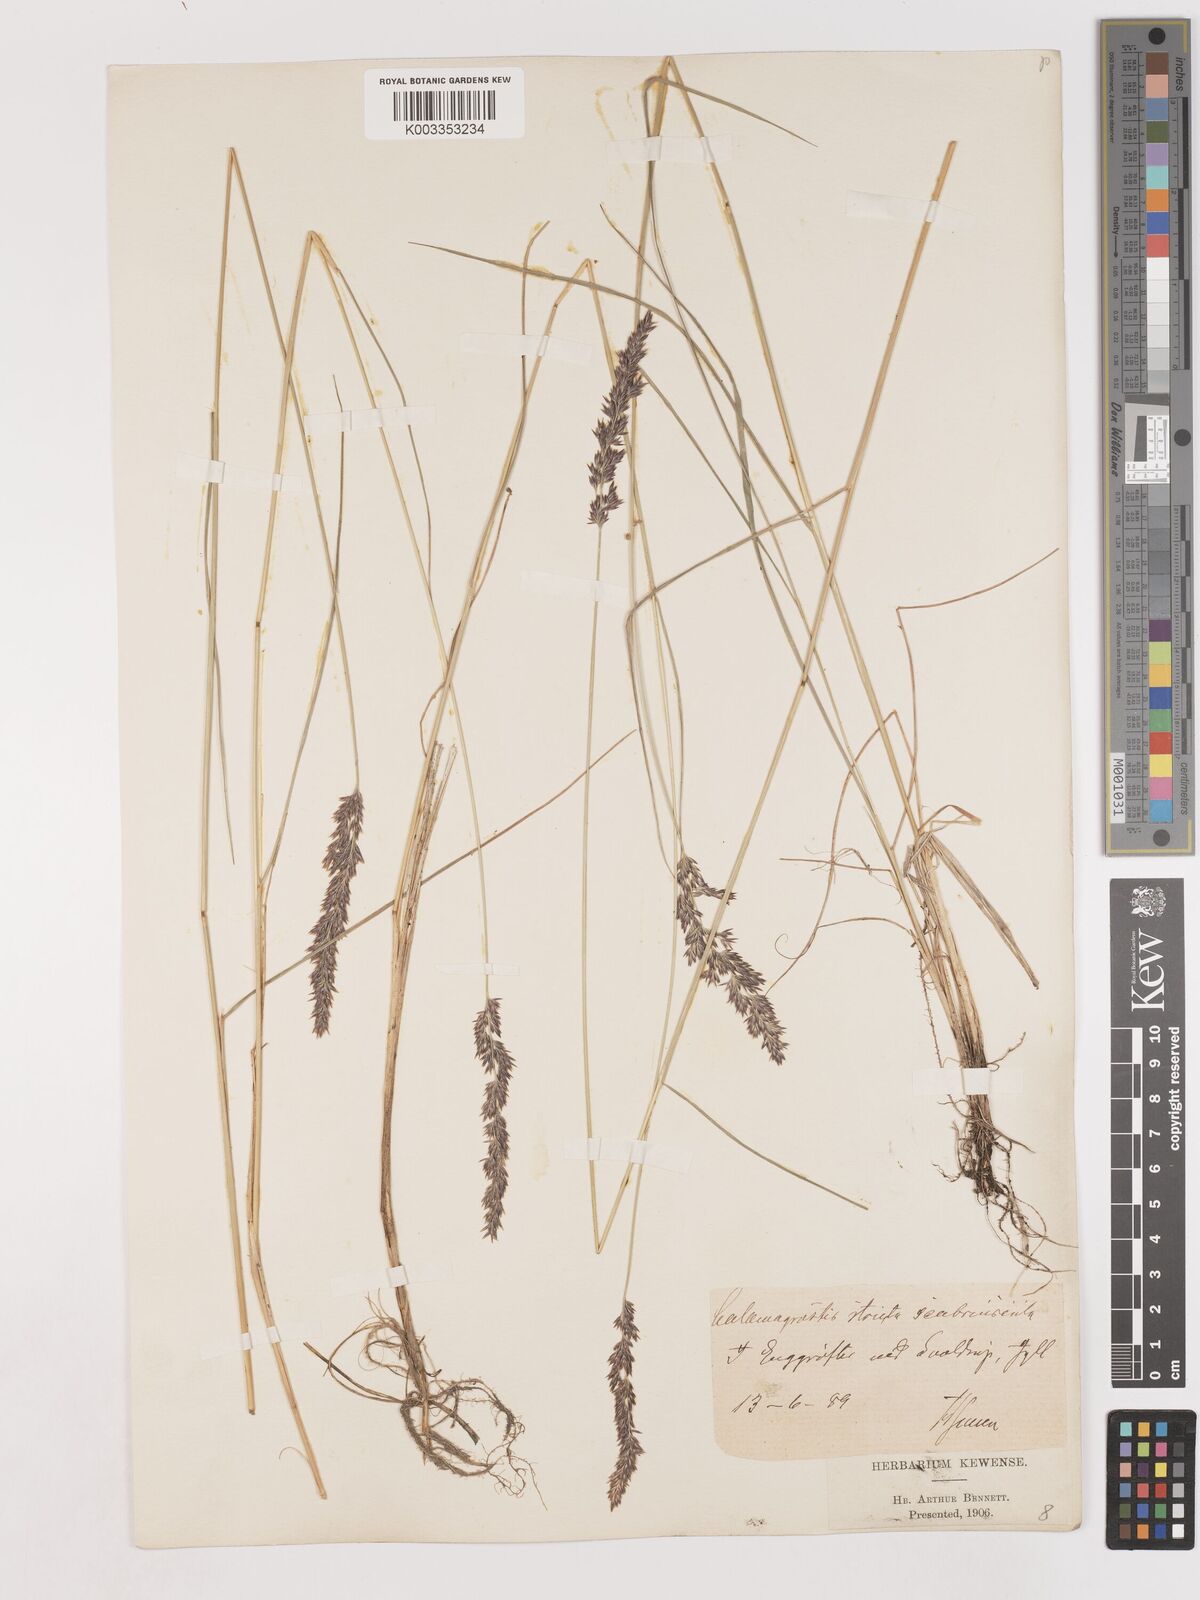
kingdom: Plantae
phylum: Tracheophyta
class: Liliopsida
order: Poales
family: Poaceae
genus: Cinnagrostis
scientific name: Cinnagrostis recta
